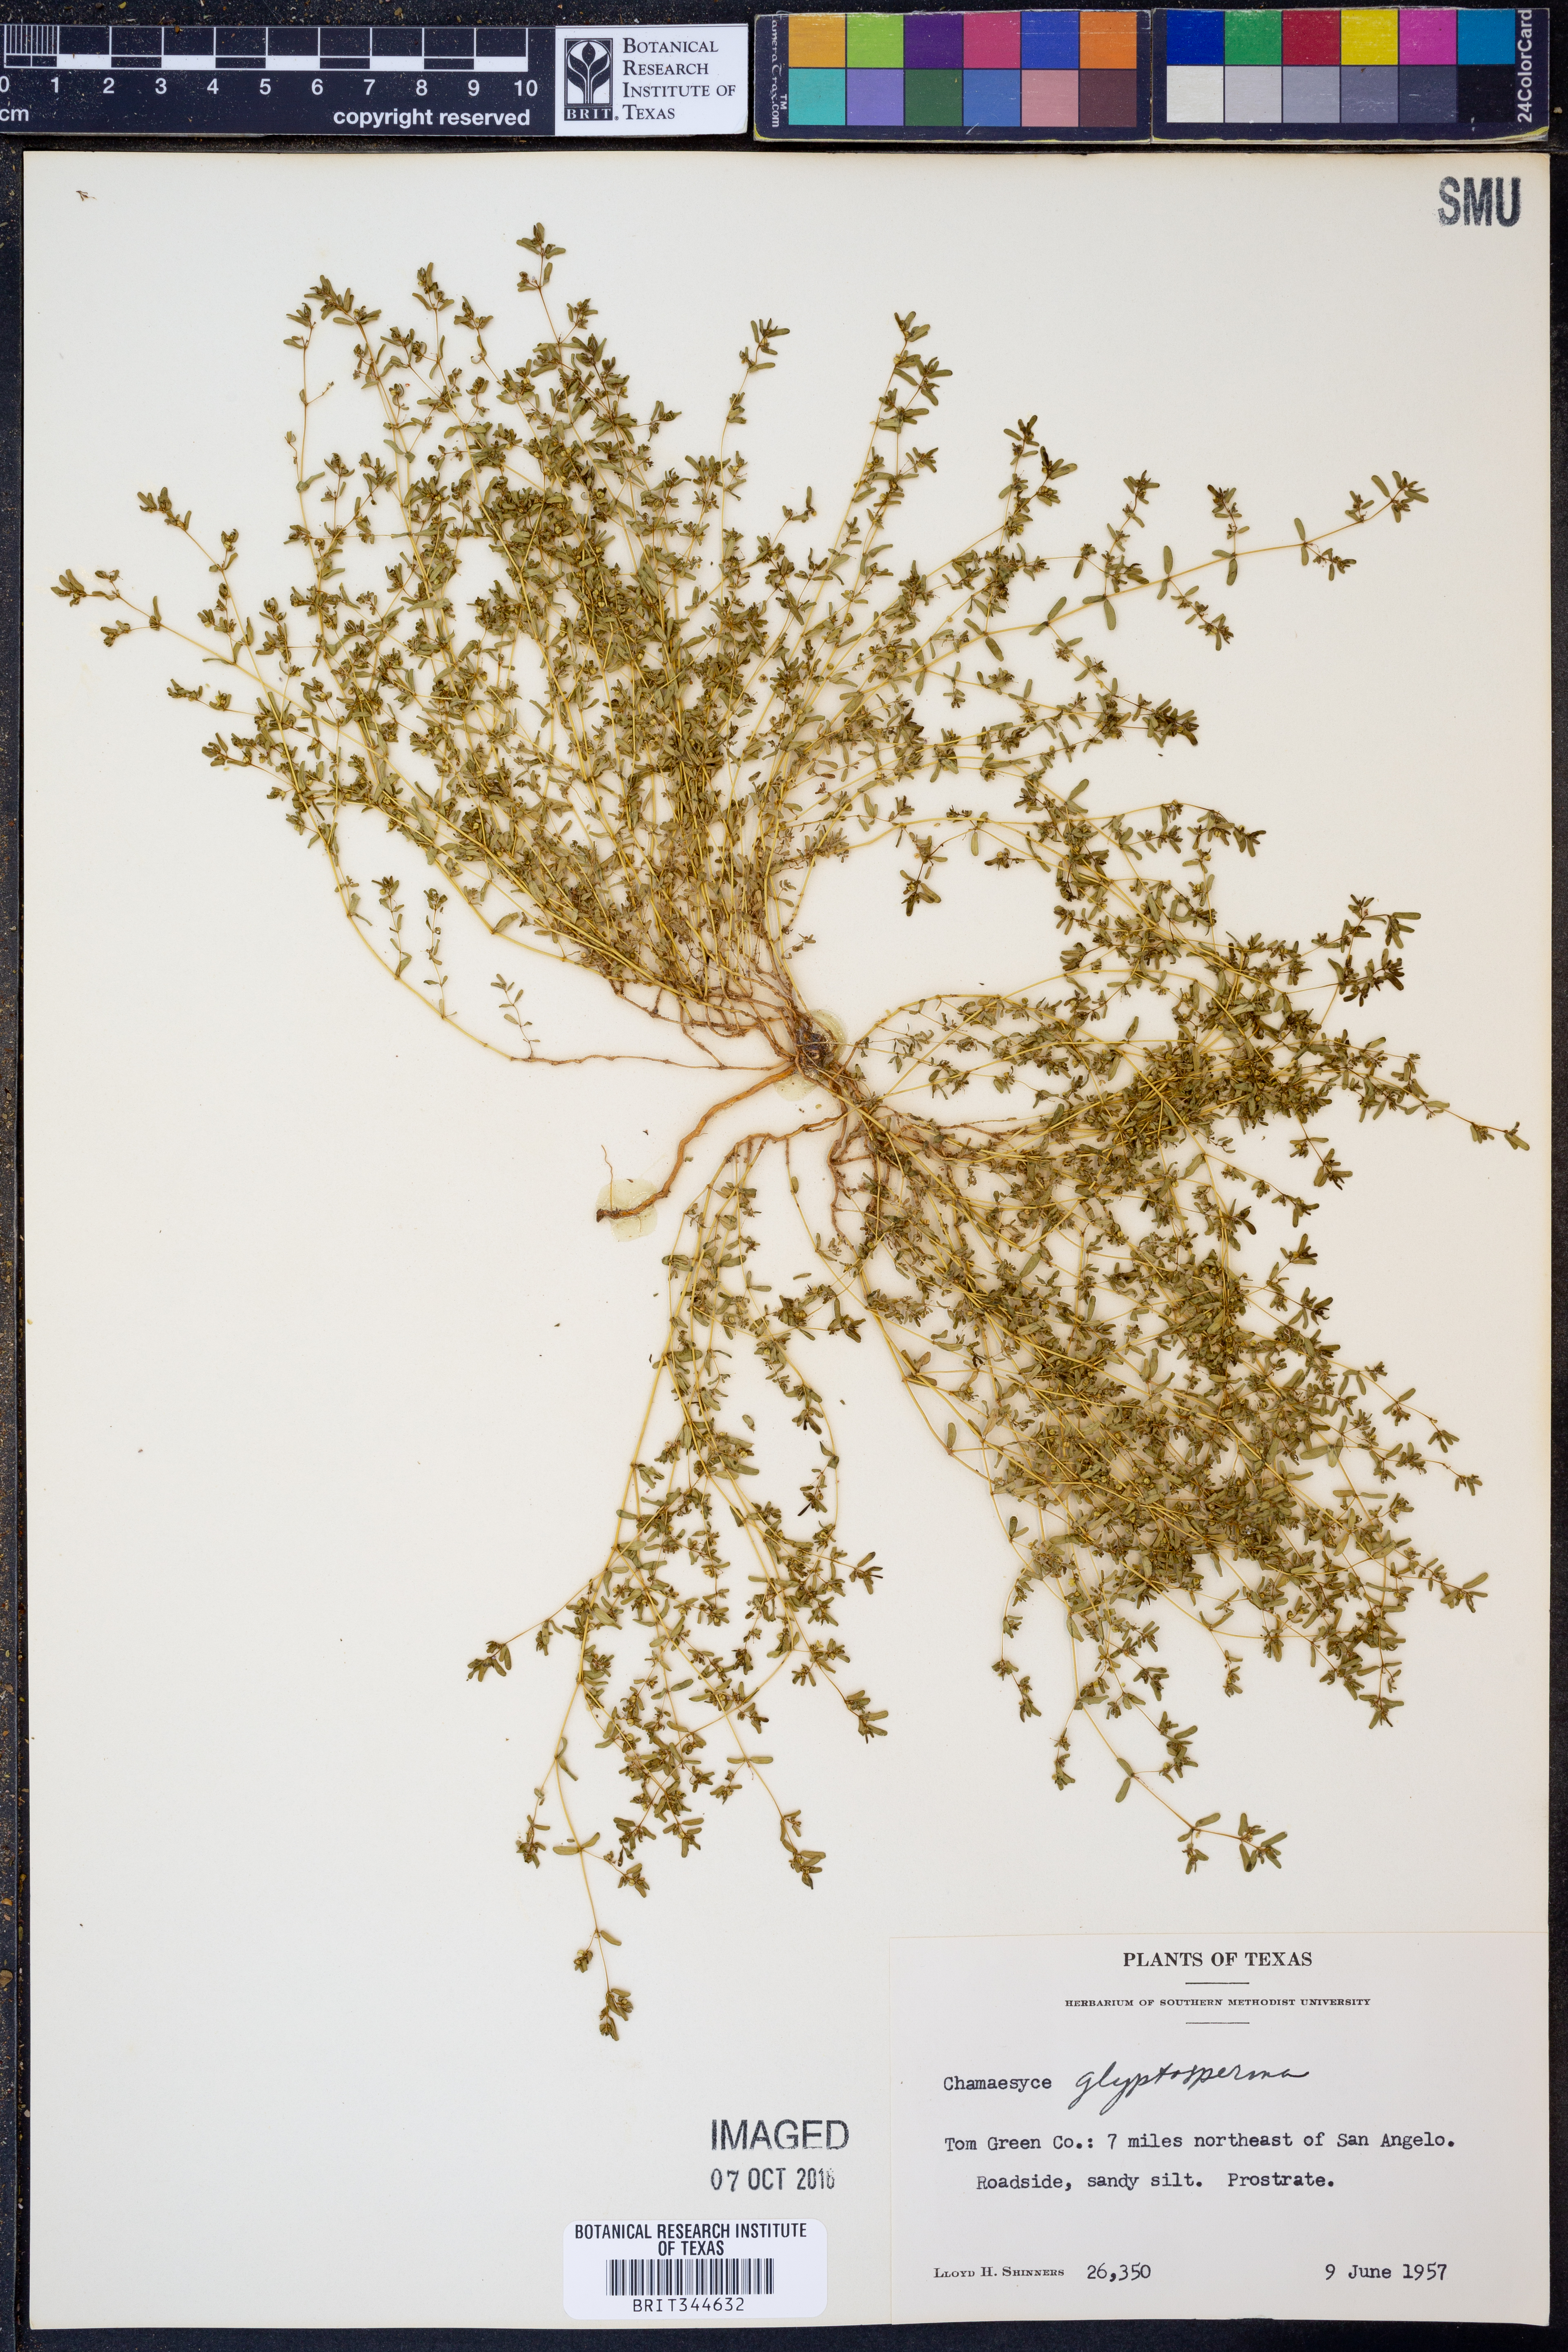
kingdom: Plantae
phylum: Tracheophyta
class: Magnoliopsida
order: Malpighiales
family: Euphorbiaceae
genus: Euphorbia
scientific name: Euphorbia glyptosperma
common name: Corrugate-seeded spurge
